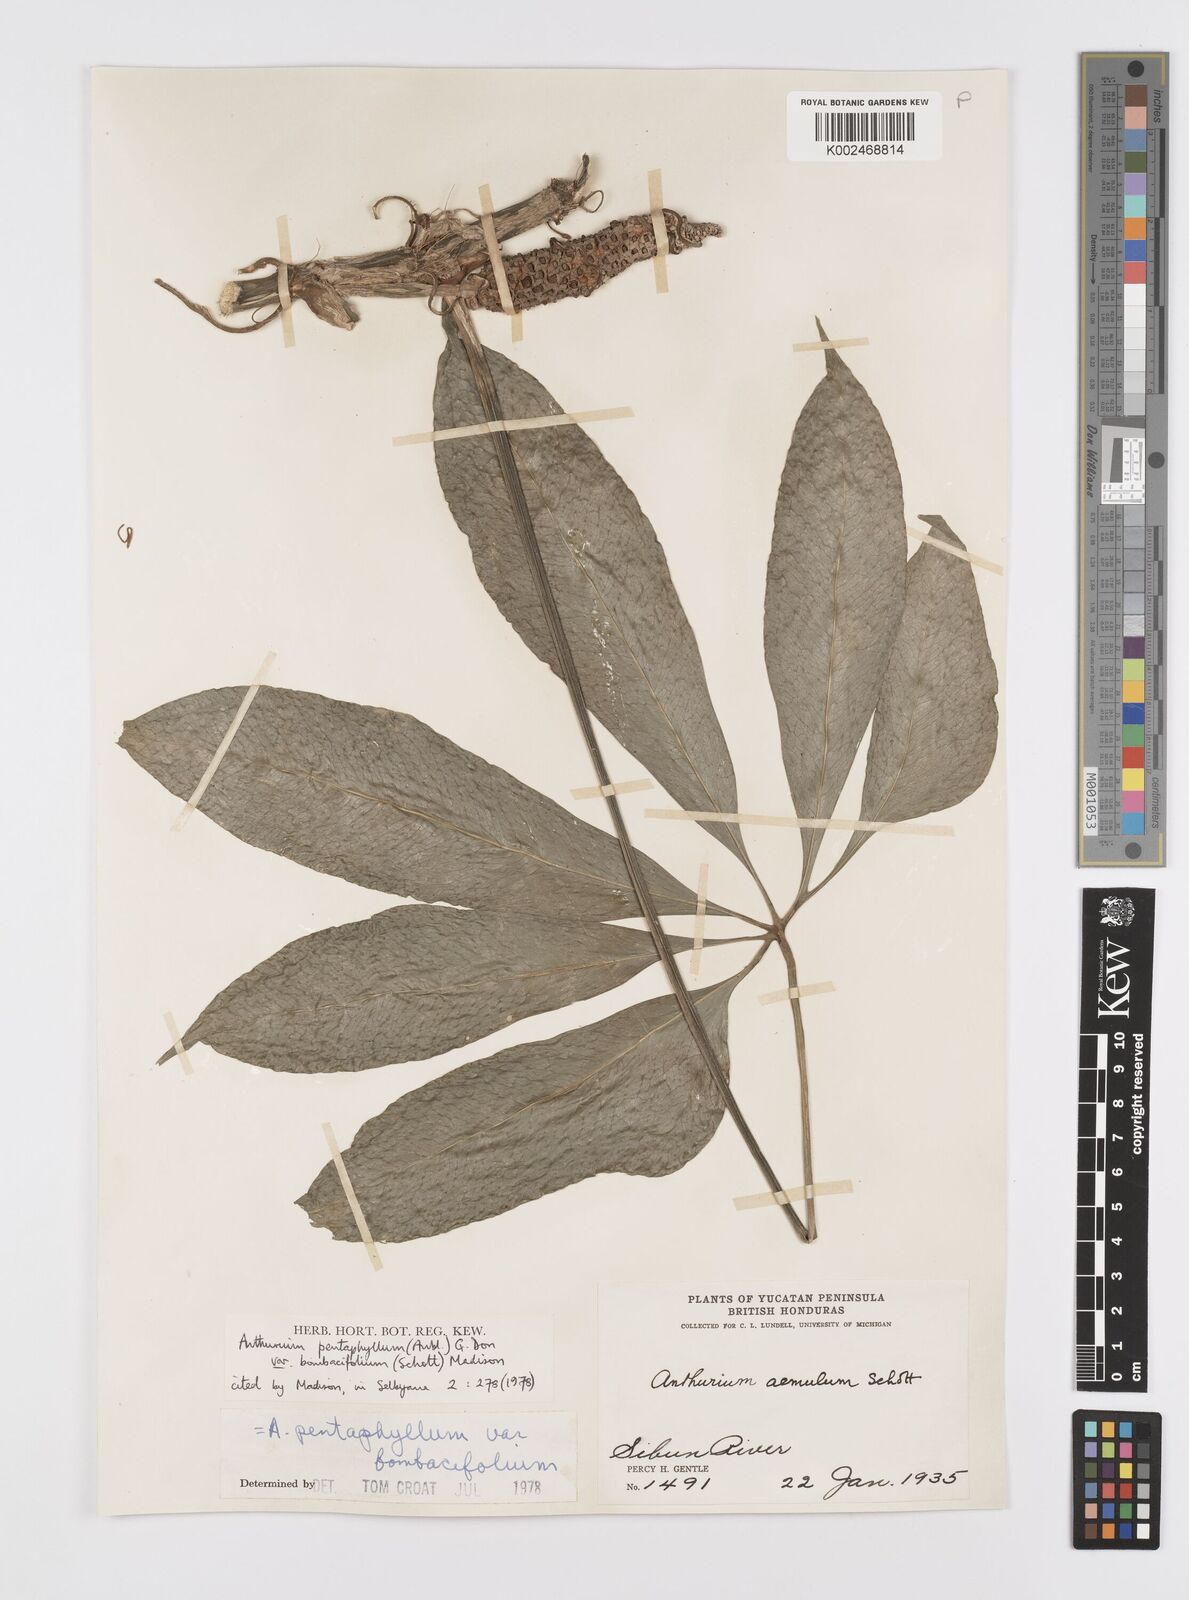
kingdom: Plantae
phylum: Tracheophyta
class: Liliopsida
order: Alismatales
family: Araceae
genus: Anthurium
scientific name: Anthurium pentaphyllum
